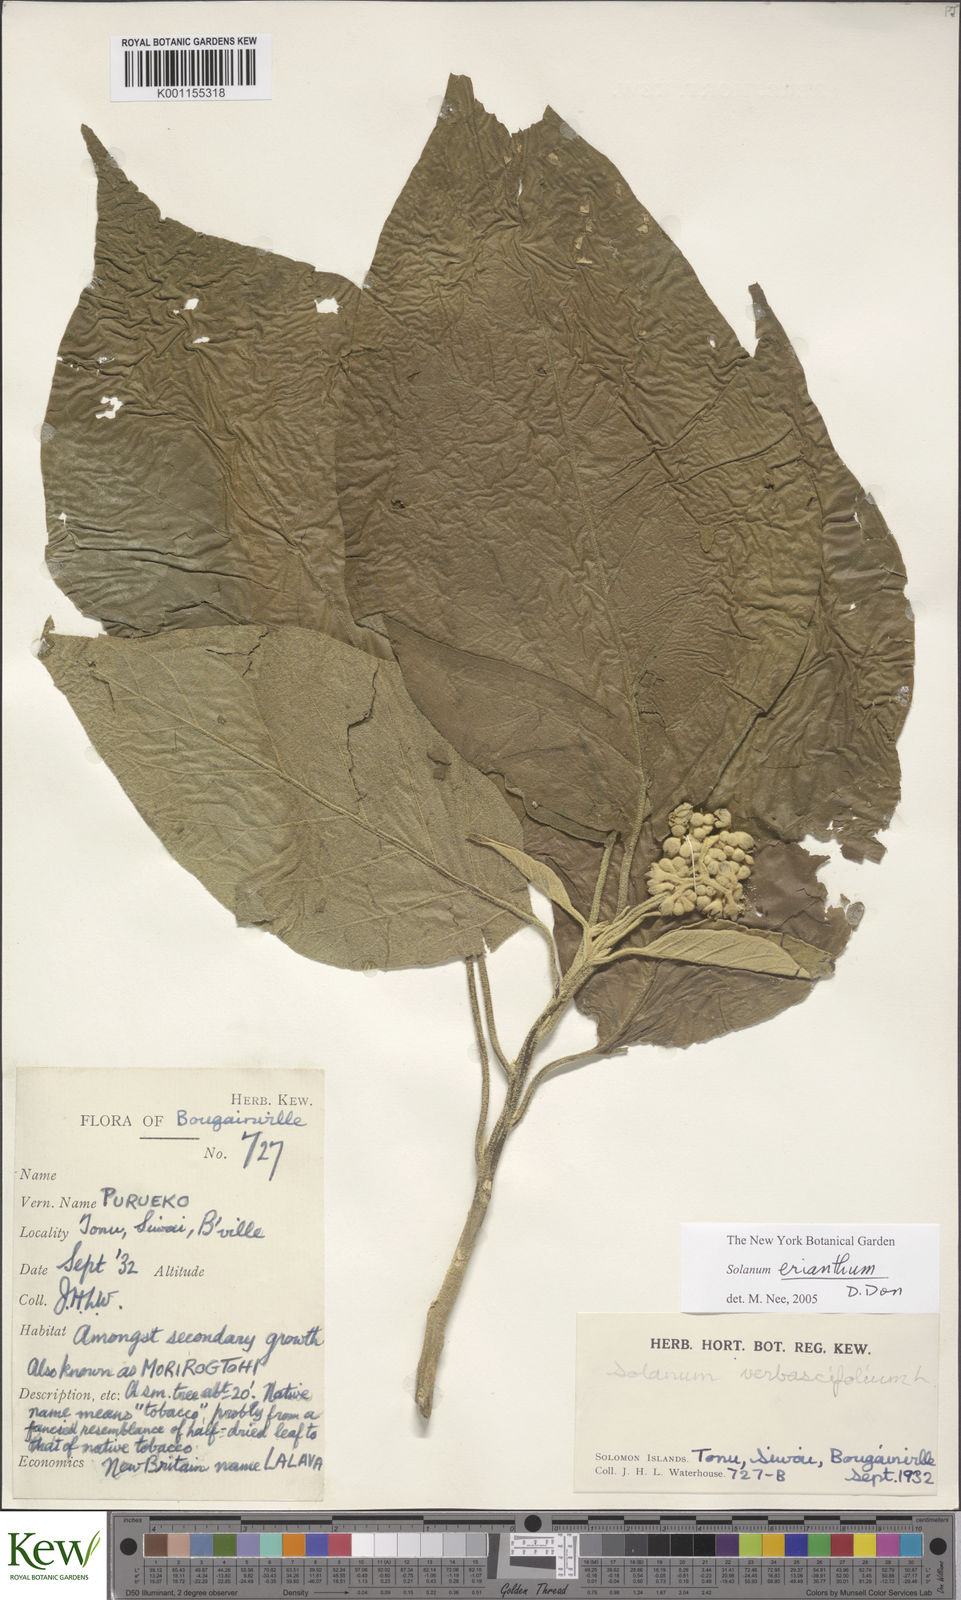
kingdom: Plantae
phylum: Tracheophyta
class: Magnoliopsida
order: Solanales
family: Solanaceae
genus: Solanum
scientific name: Solanum erianthum
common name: Tobacco-tree
